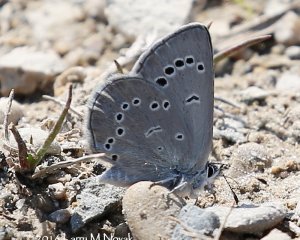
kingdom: Animalia
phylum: Arthropoda
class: Insecta
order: Lepidoptera
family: Lycaenidae
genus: Glaucopsyche
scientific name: Glaucopsyche lygdamus
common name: Silvery Blue
